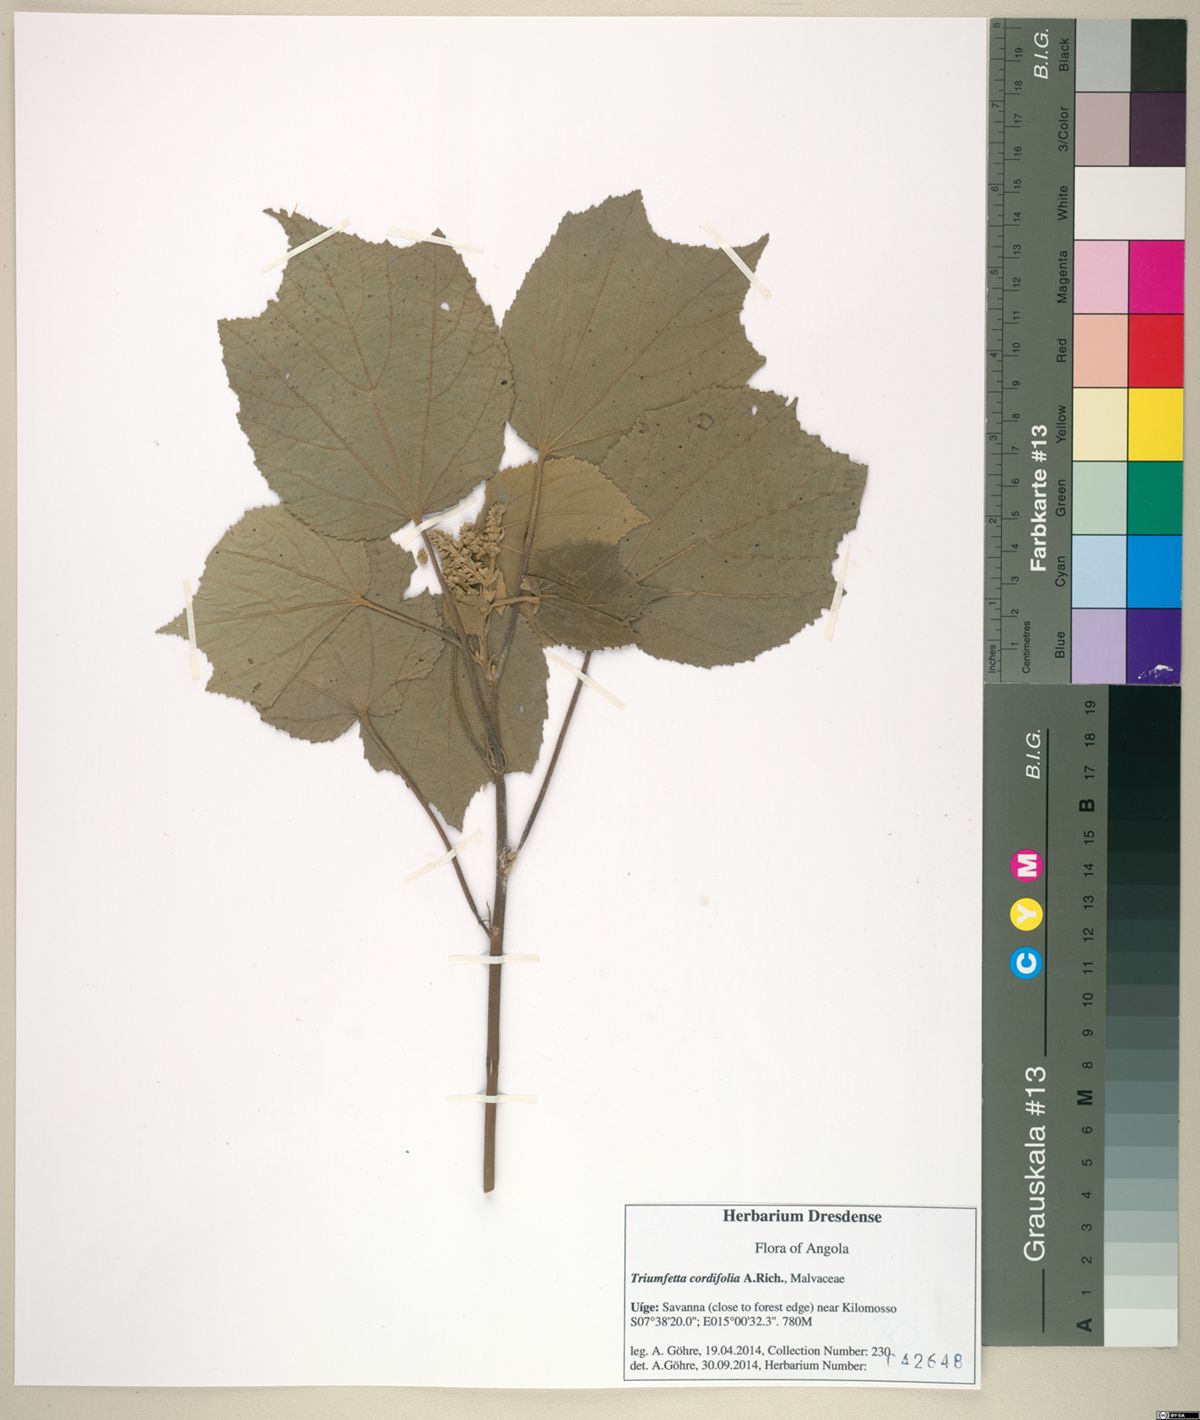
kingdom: Plantae
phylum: Tracheophyta
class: Magnoliopsida
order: Malvales
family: Malvaceae
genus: Triumfetta
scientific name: Triumfetta cordifolia
